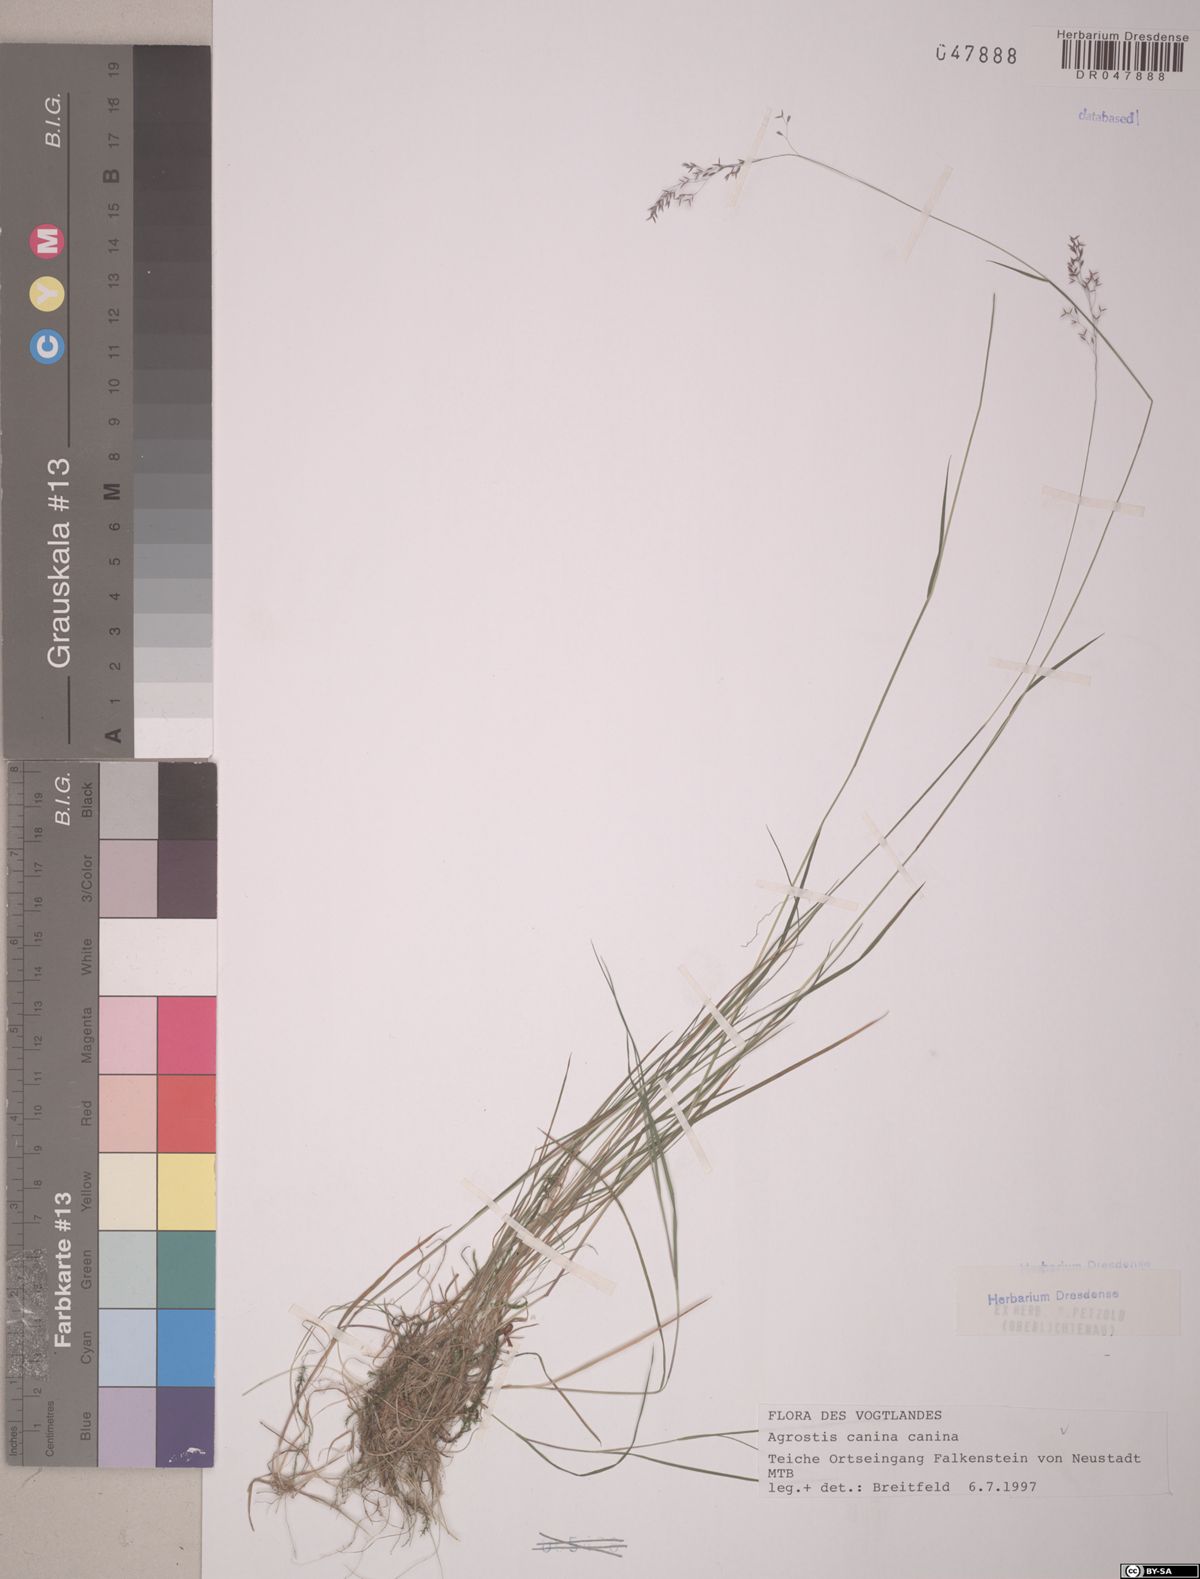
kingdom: Plantae
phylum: Tracheophyta
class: Liliopsida
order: Poales
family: Poaceae
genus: Agrostis
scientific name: Agrostis canina
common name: Velvet bent
